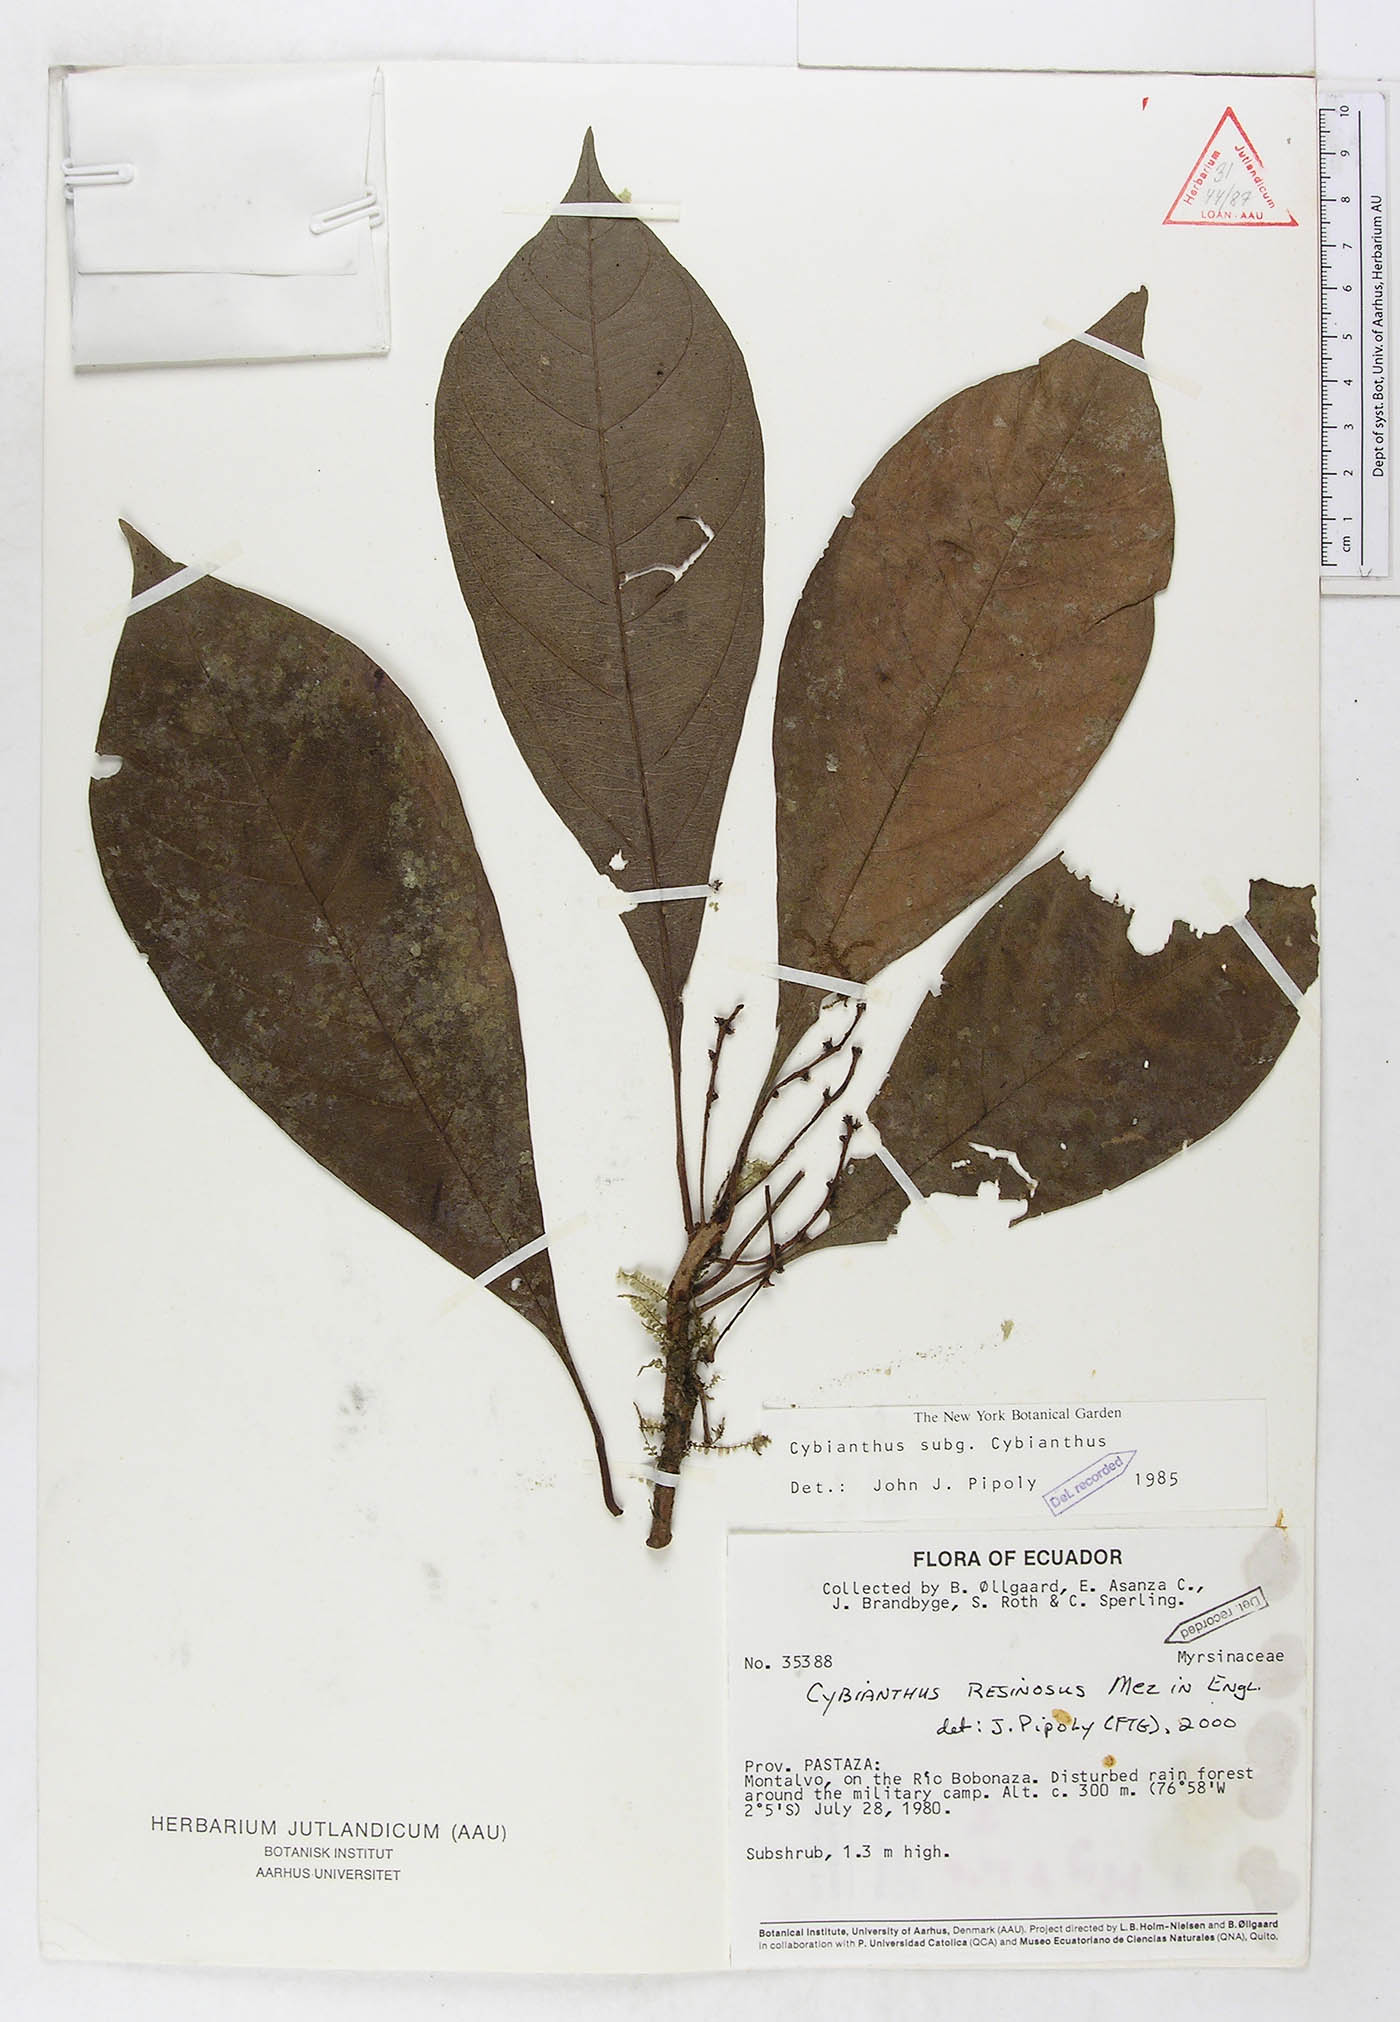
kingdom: Plantae
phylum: Tracheophyta
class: Magnoliopsida
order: Ericales
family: Primulaceae
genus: Cybianthus
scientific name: Cybianthus resinosus
